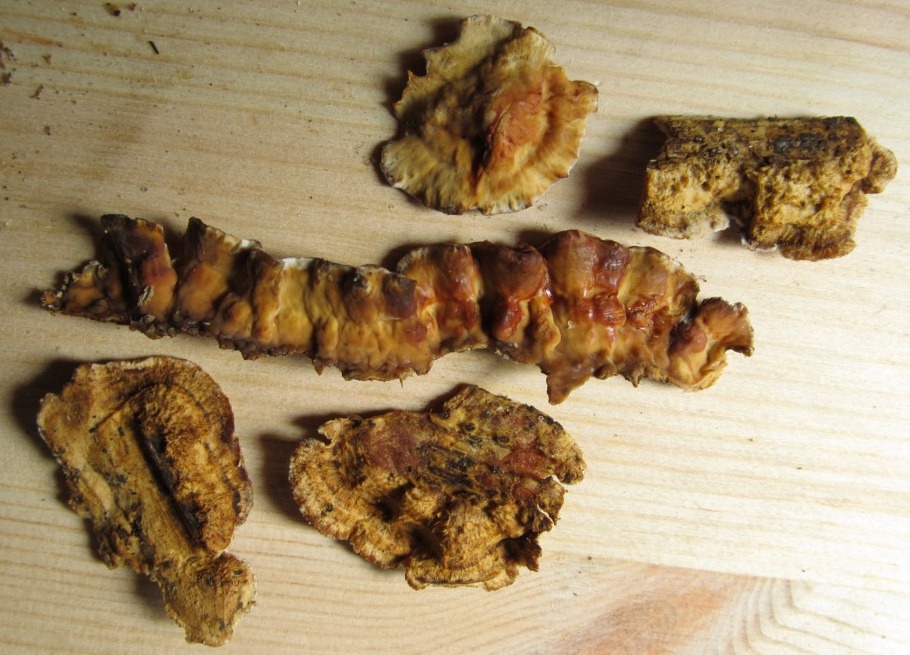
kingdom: Fungi
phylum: Basidiomycota
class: Agaricomycetes
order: Russulales
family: Stereaceae
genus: Stereum
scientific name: Stereum gausapatum
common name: tynd lædersvamp
